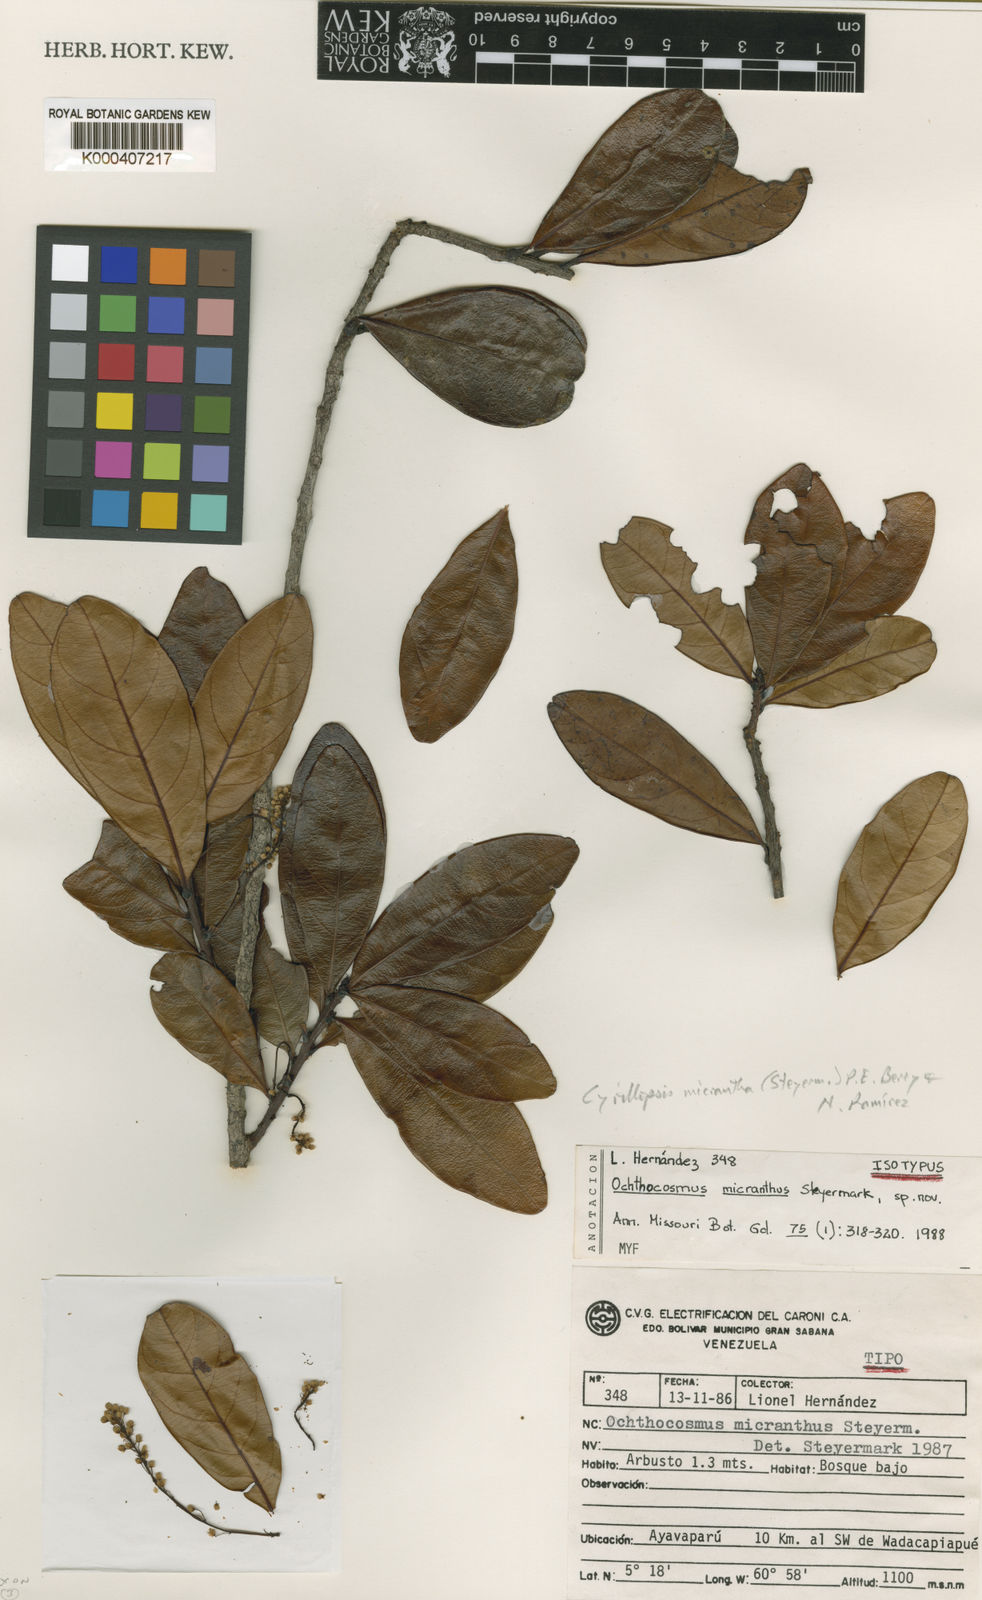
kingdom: Plantae
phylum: Tracheophyta
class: Magnoliopsida
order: Malpighiales
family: Ixonanthaceae
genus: Cyrillopsis
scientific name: Cyrillopsis micrantha
